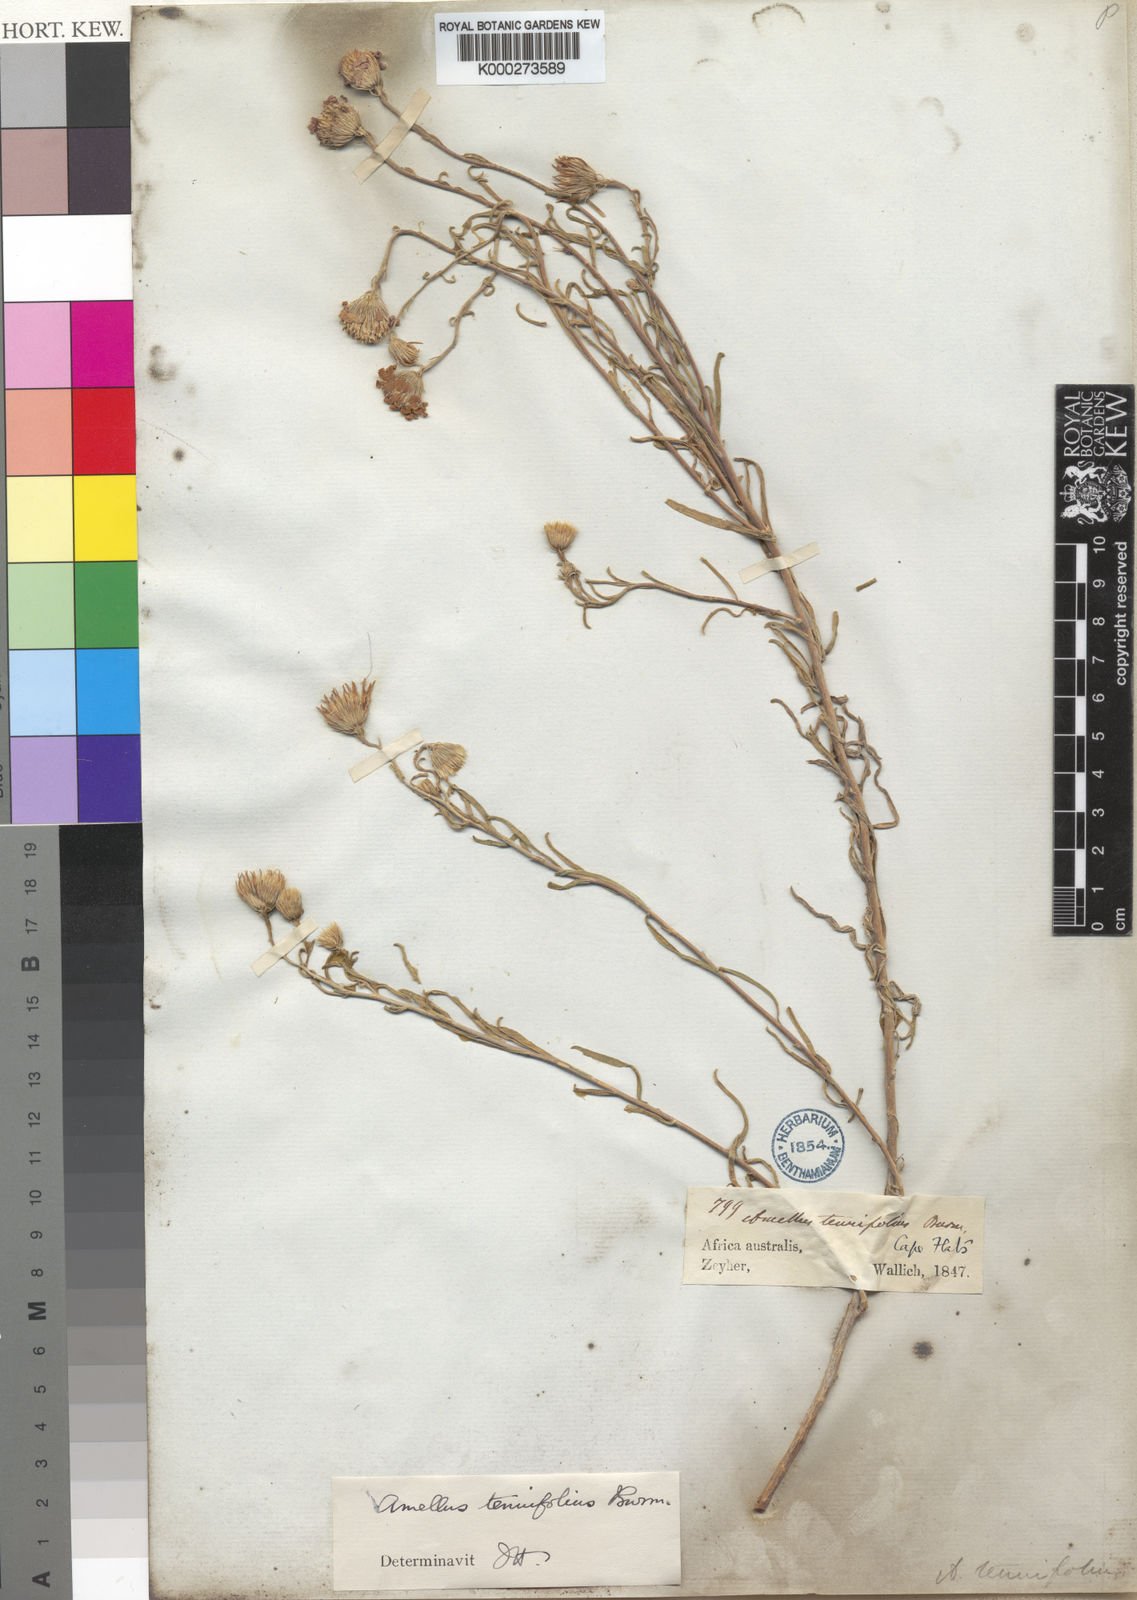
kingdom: Plantae
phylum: Tracheophyta
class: Magnoliopsida
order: Asterales
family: Asteraceae
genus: Amellus
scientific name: Amellus tenuifolius
